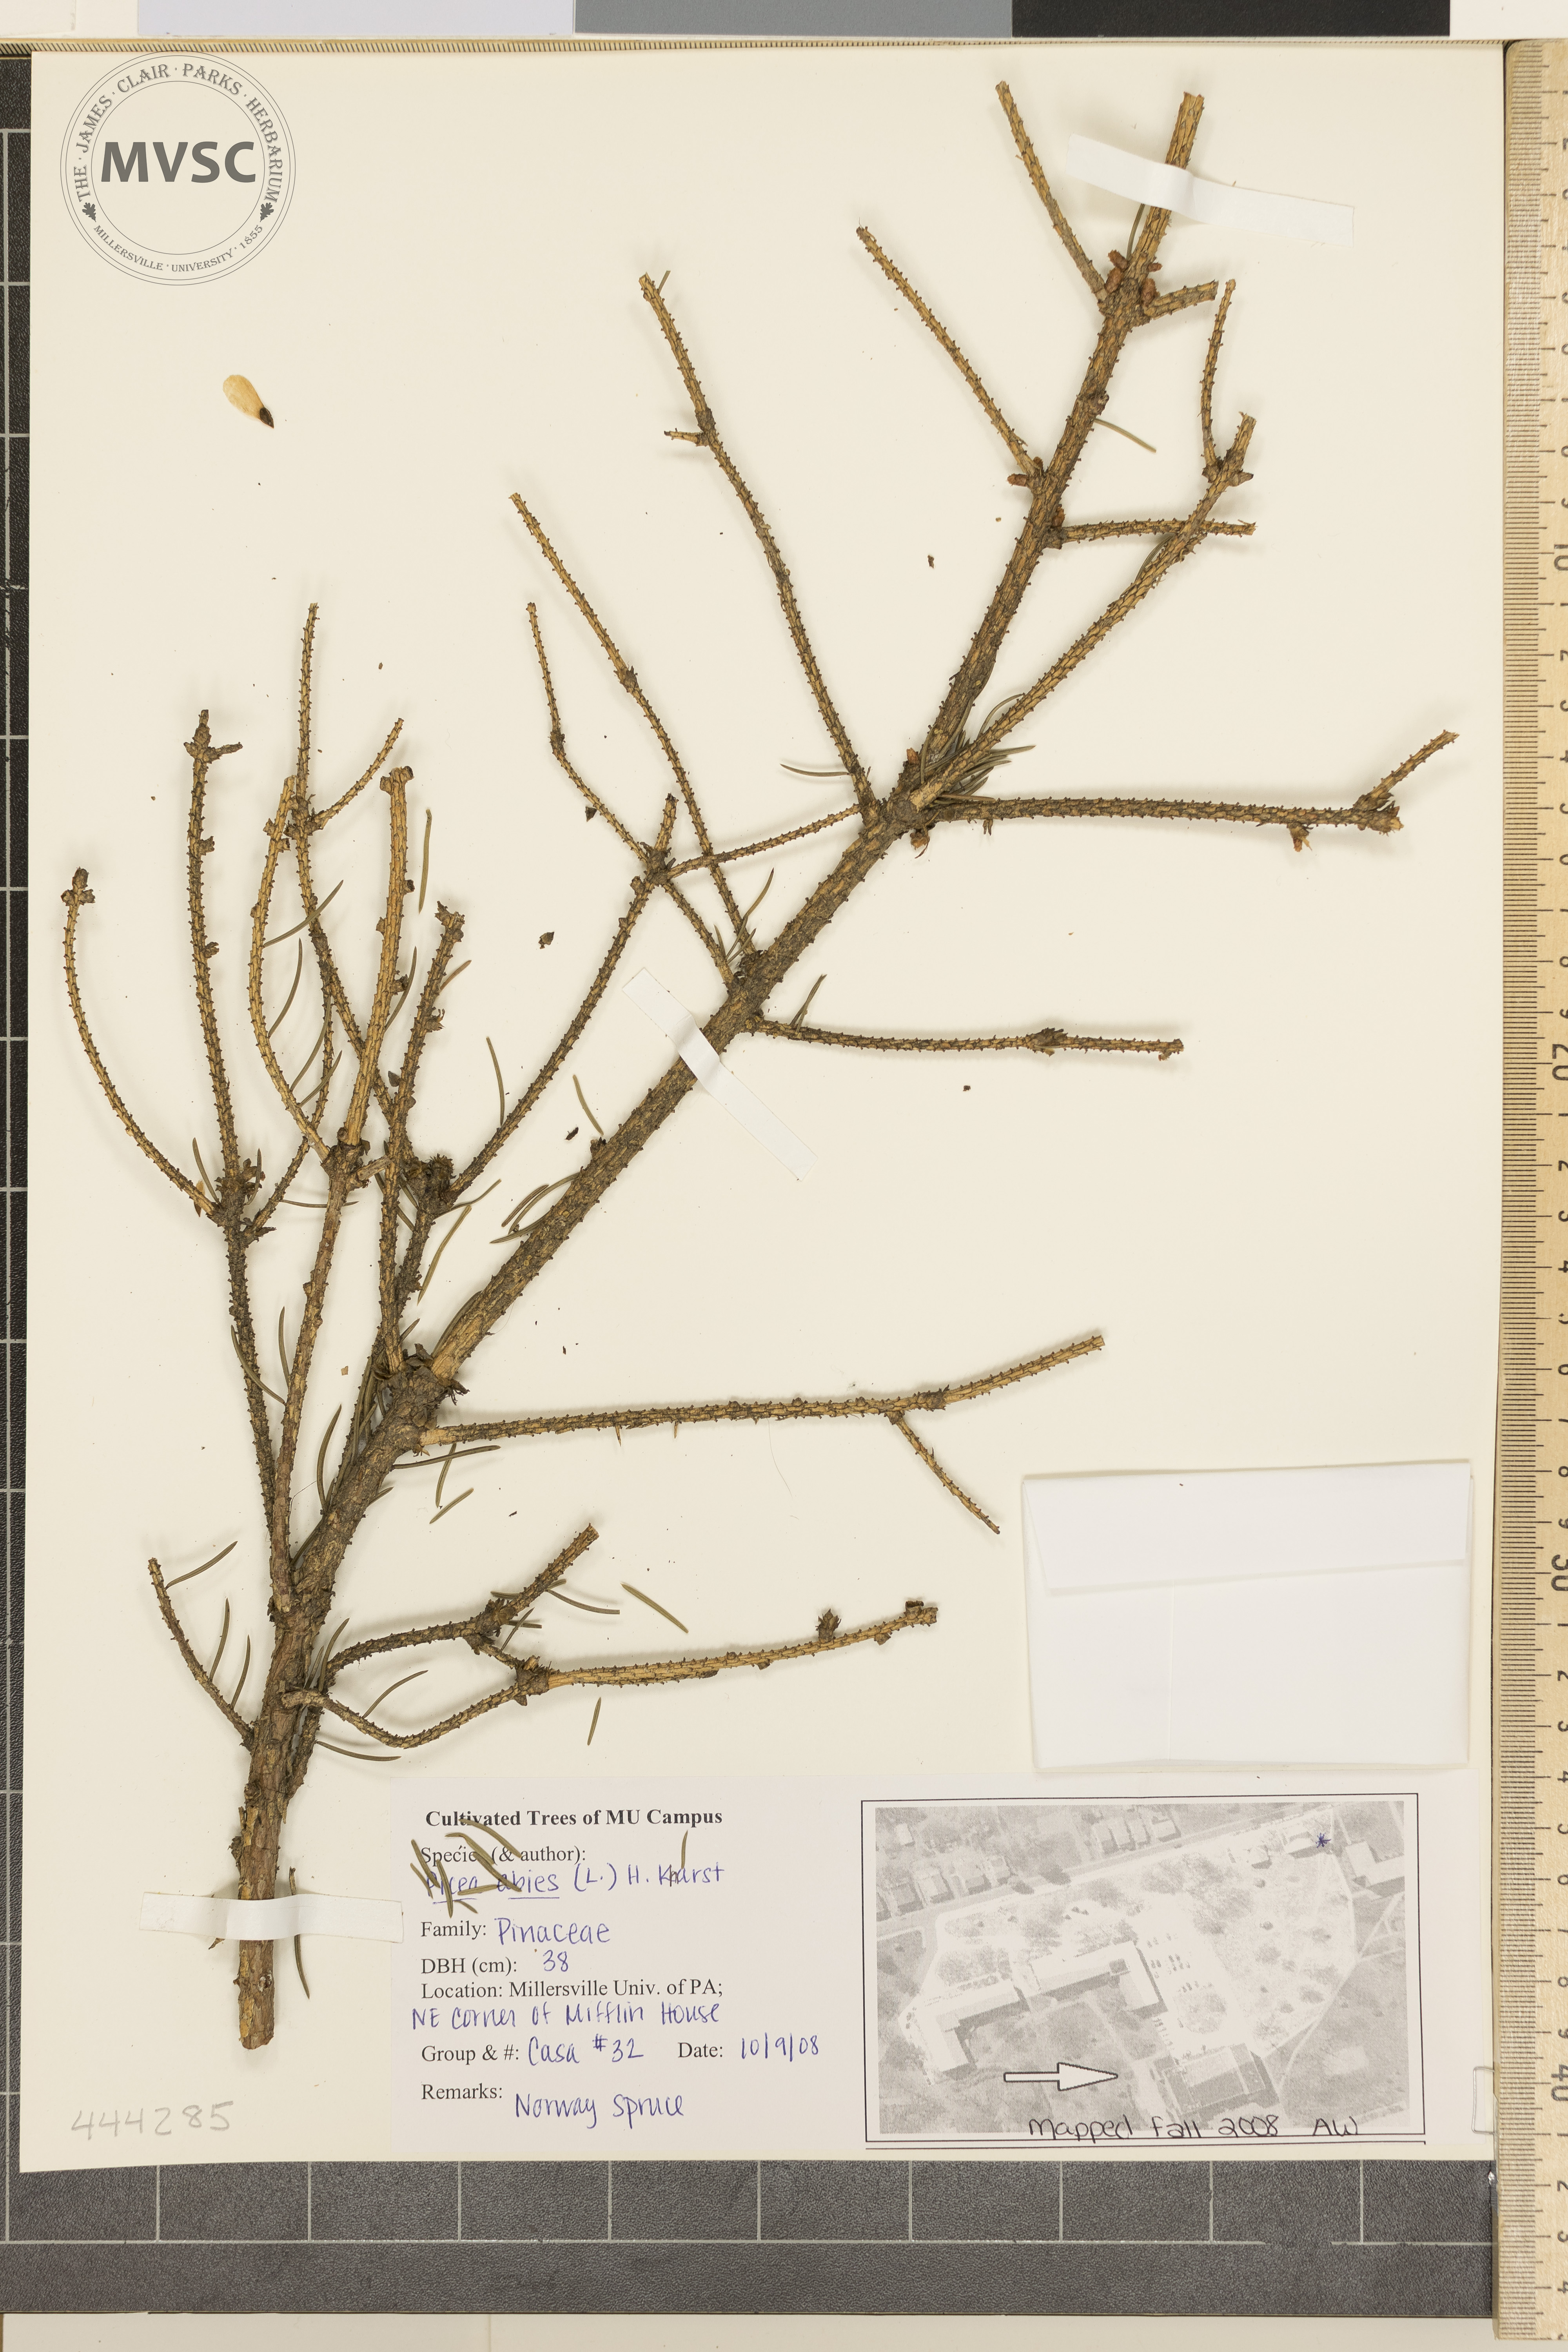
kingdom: Plantae
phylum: Tracheophyta
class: Pinopsida
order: Pinales
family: Pinaceae
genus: Picea
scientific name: Picea abies
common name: Norway Spruce
